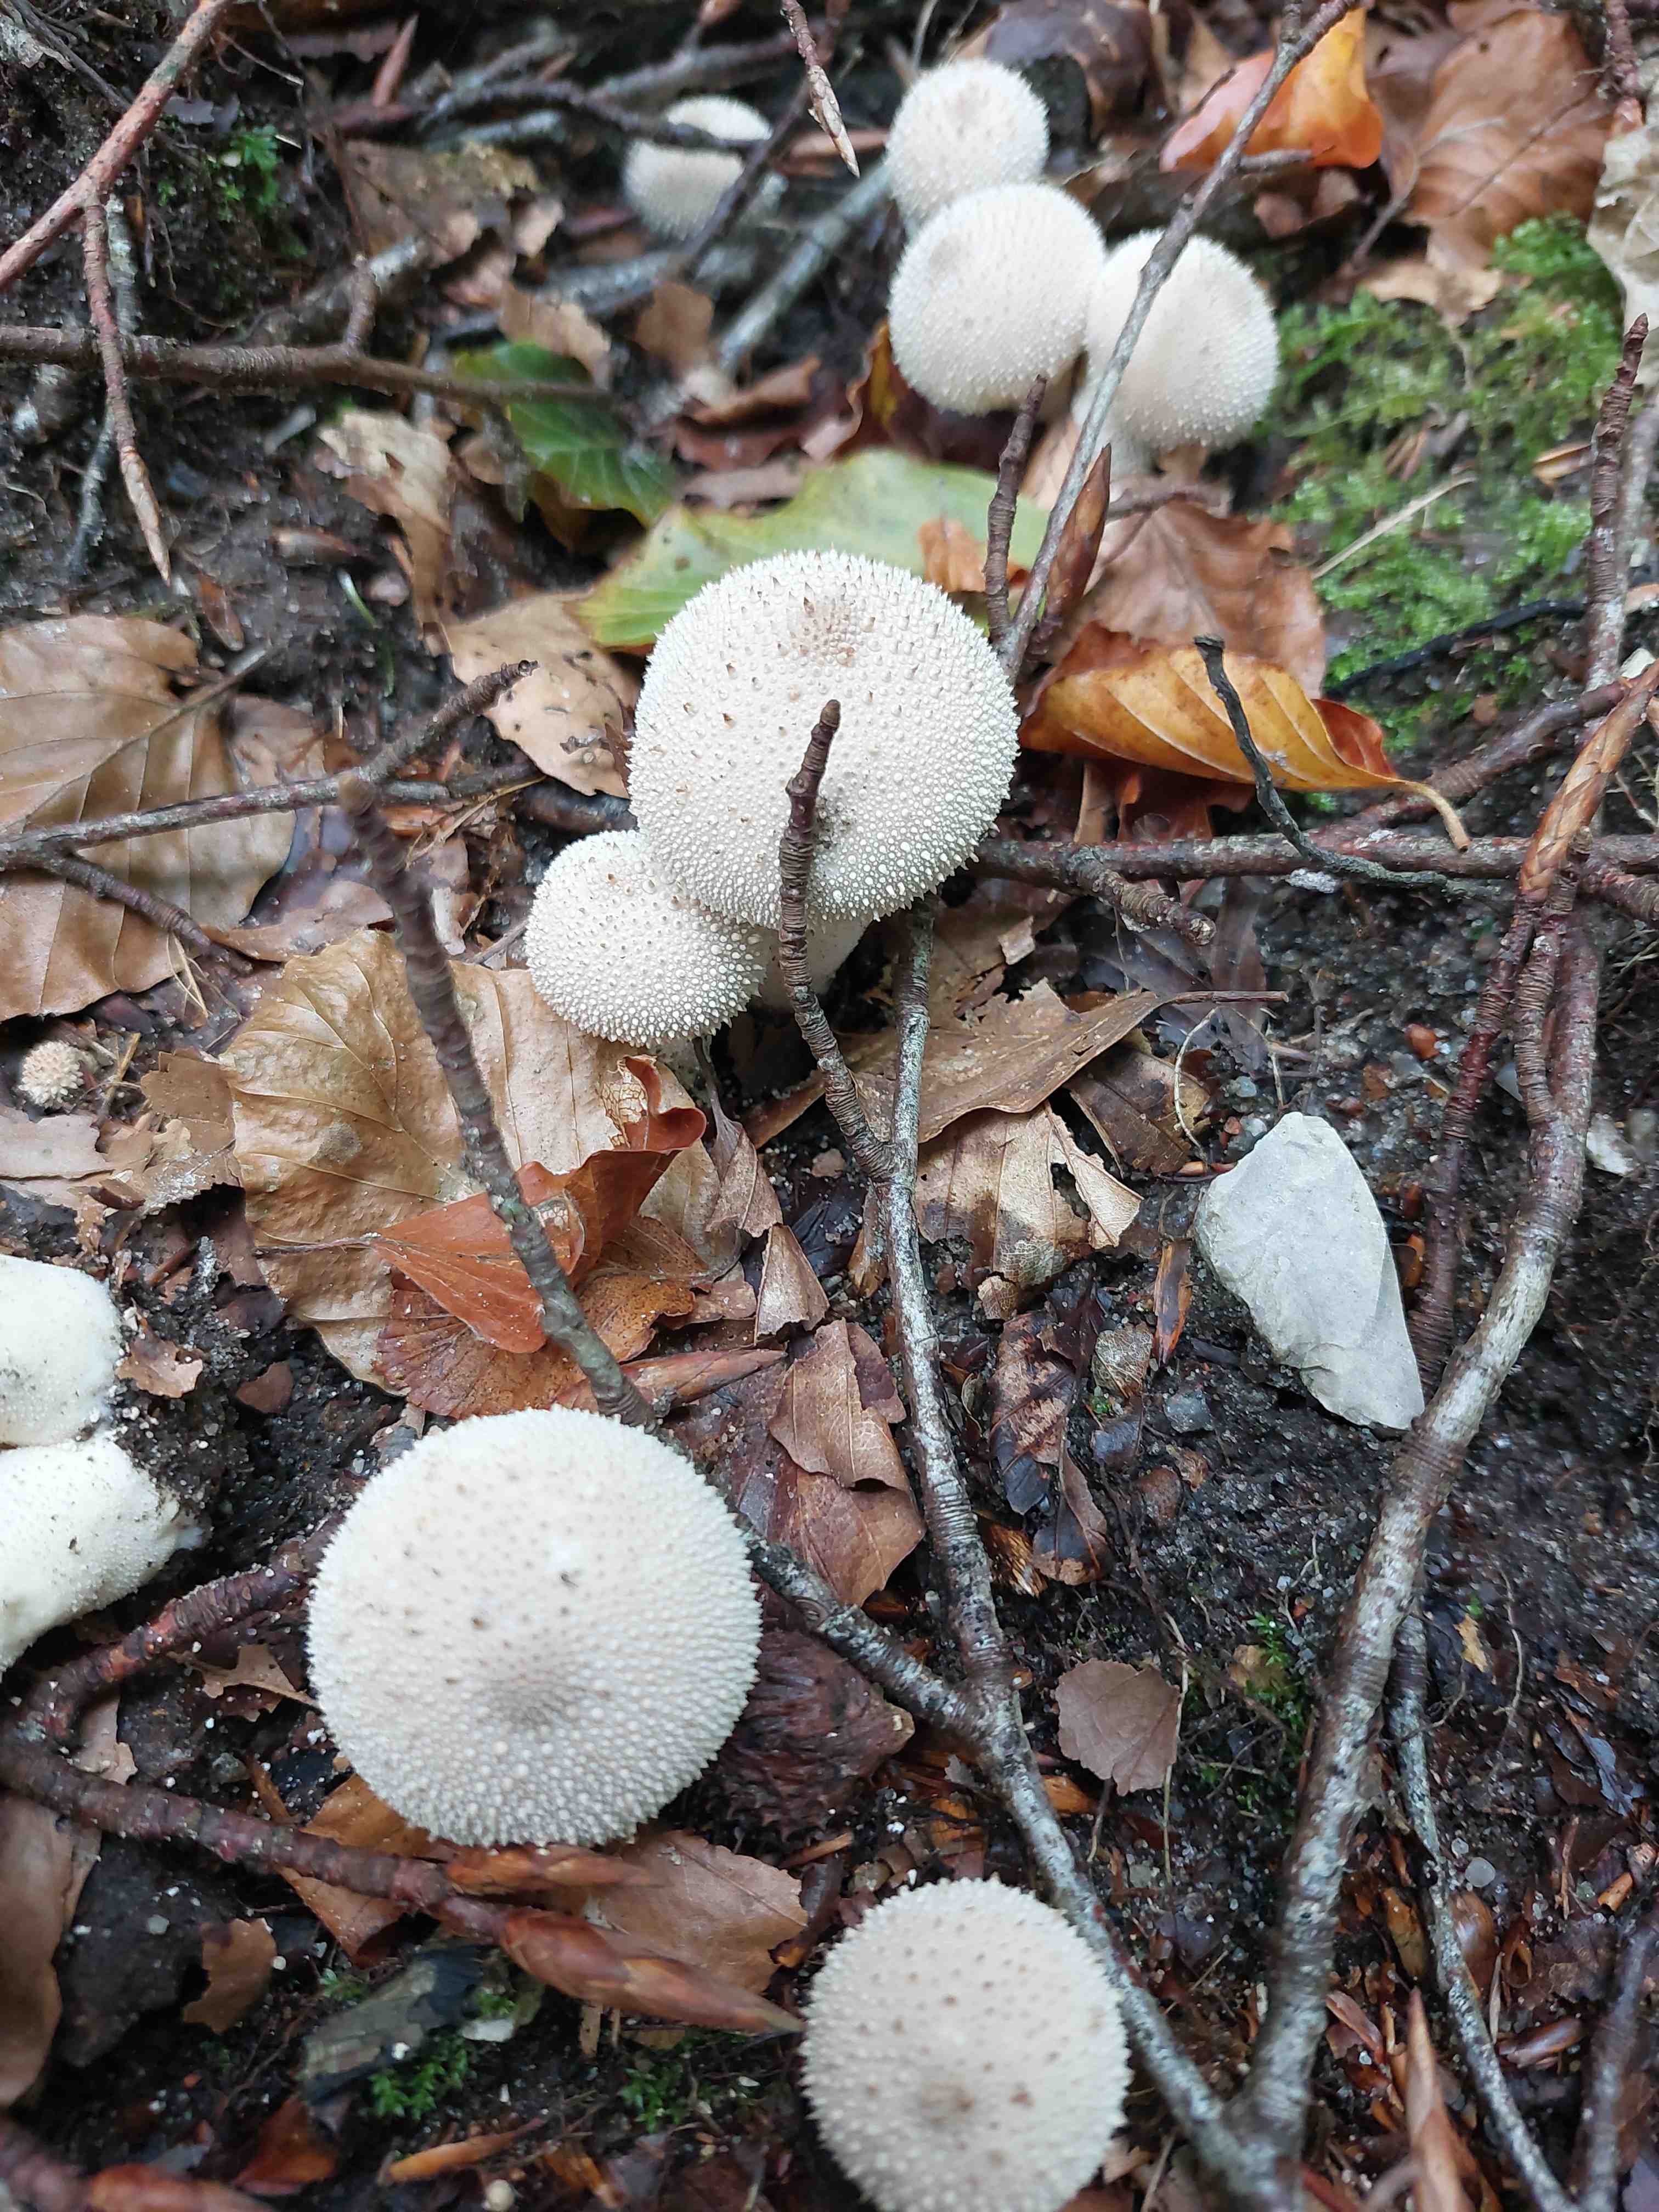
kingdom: Fungi
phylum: Basidiomycota
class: Agaricomycetes
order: Agaricales
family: Lycoperdaceae
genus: Lycoperdon
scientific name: Lycoperdon perlatum
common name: krystal-støvbold
